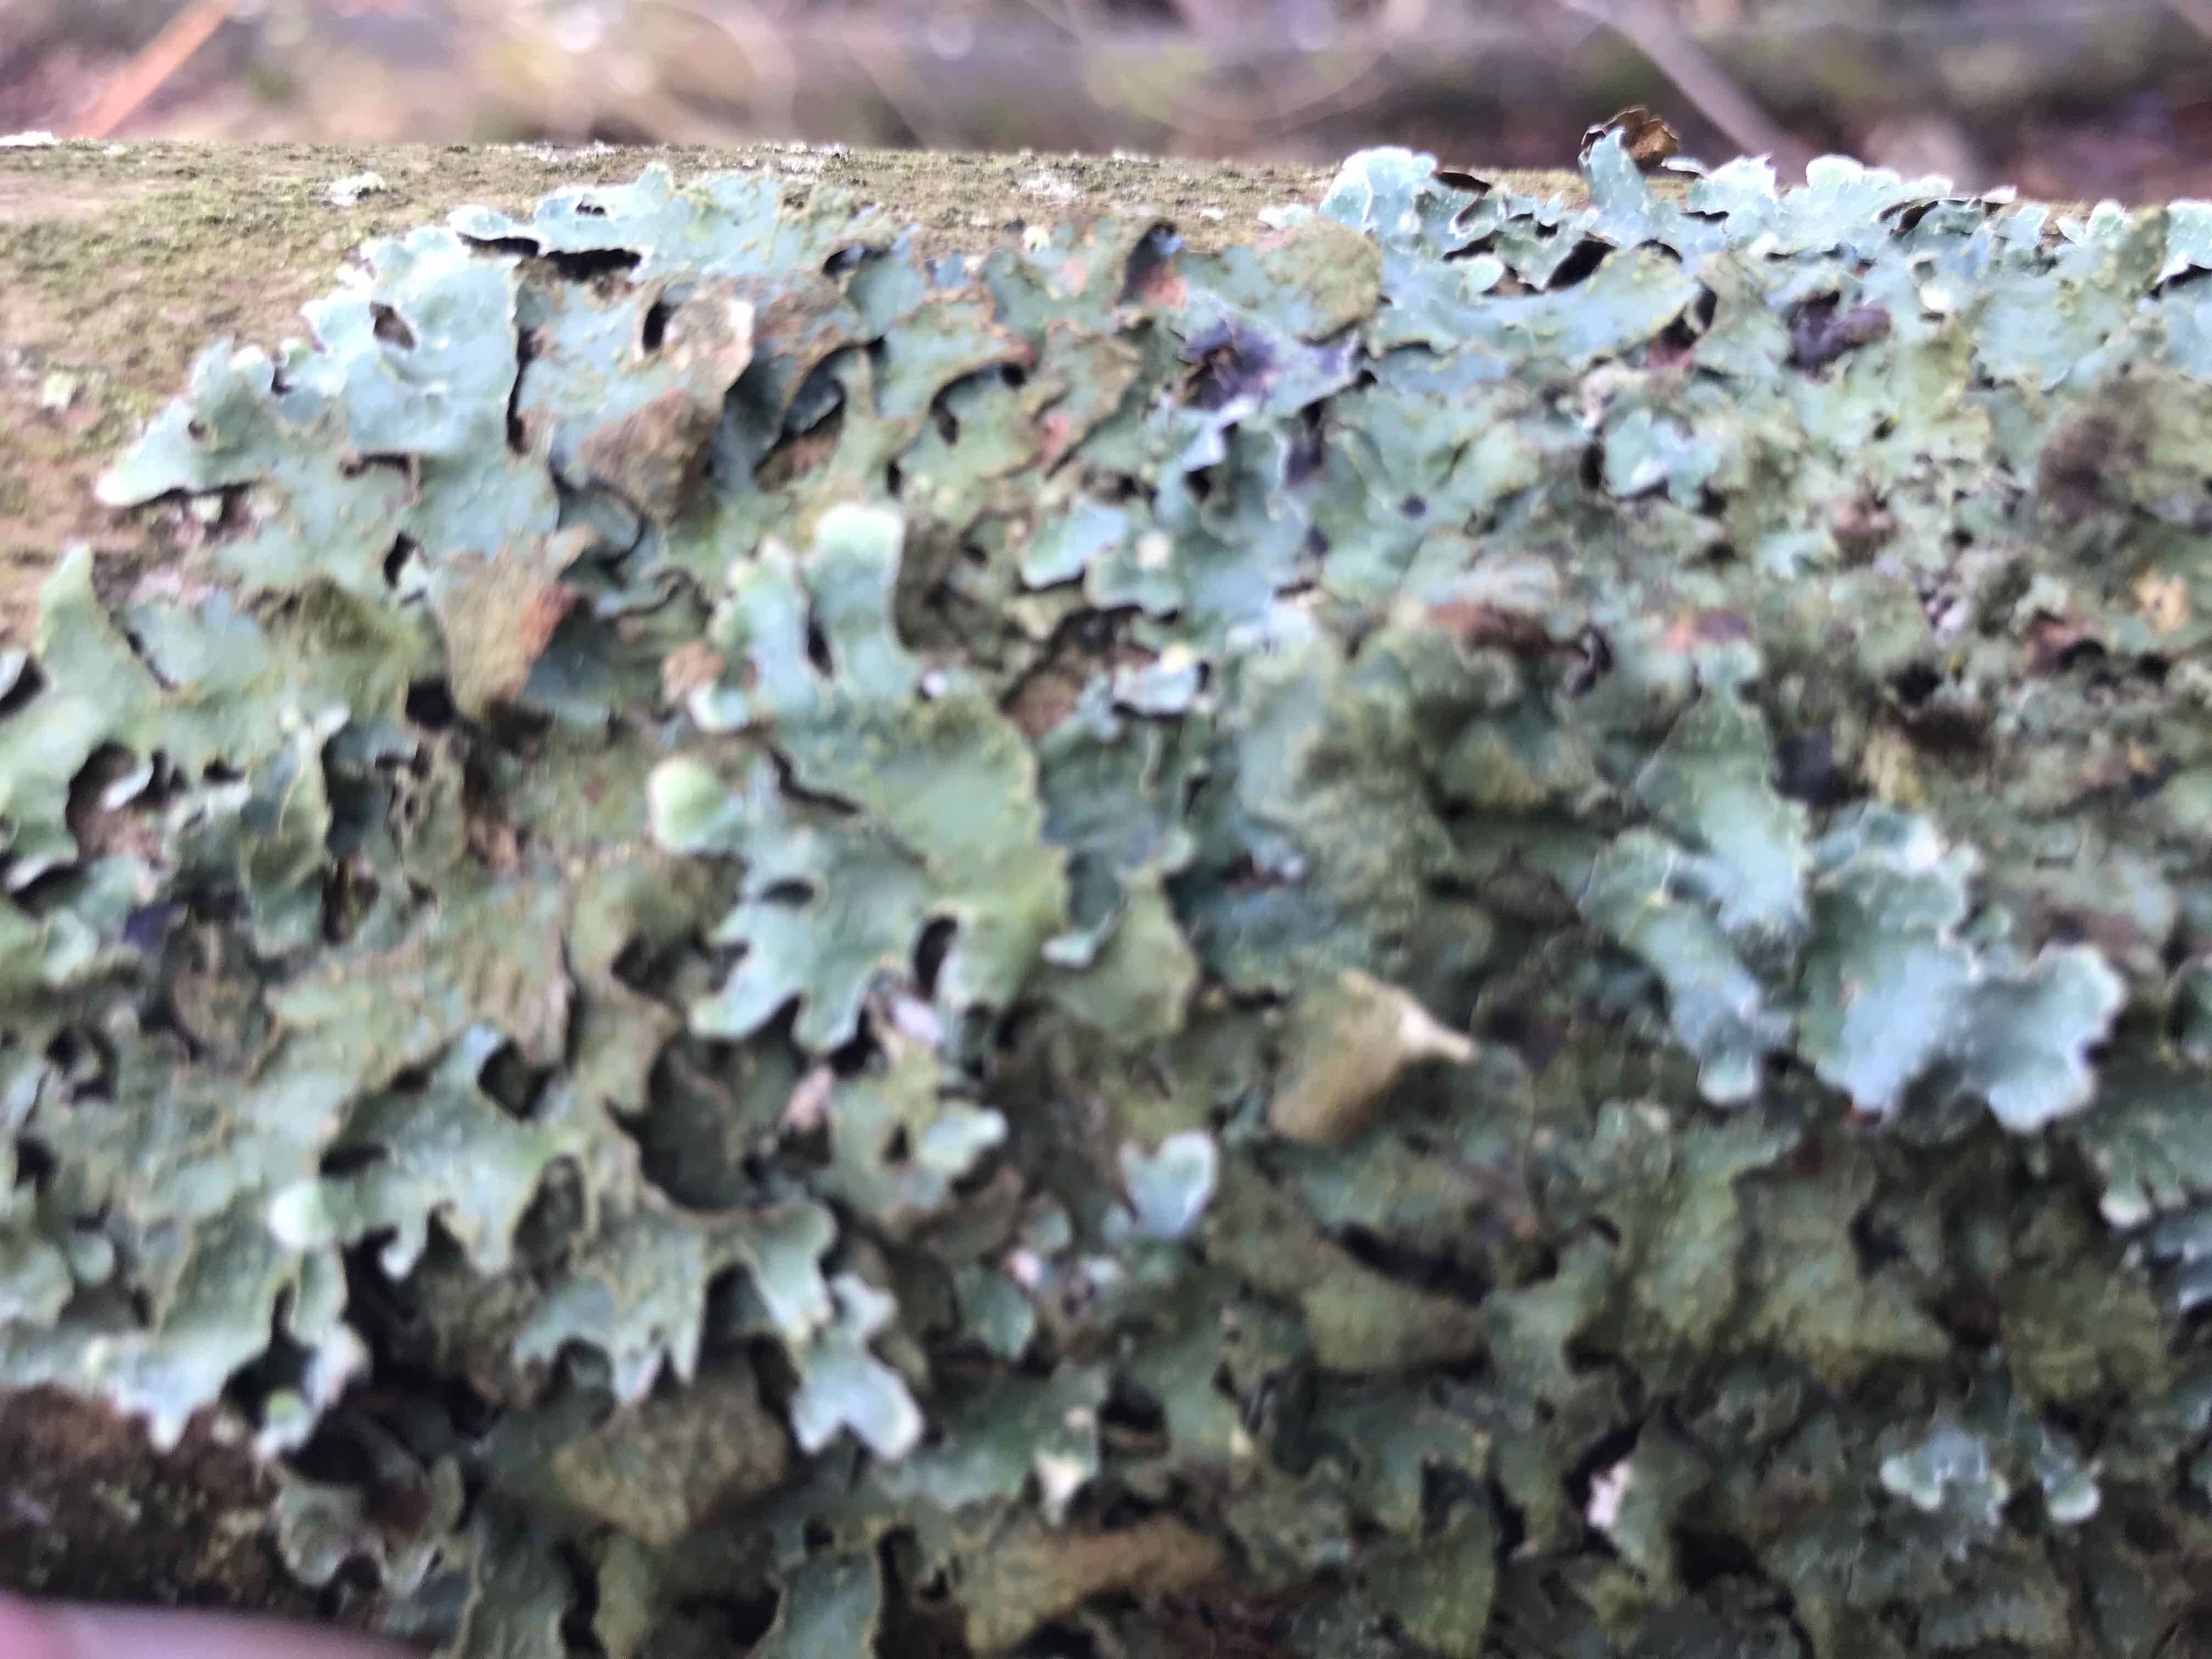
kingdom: Fungi
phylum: Ascomycota
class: Lecanoromycetes
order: Lecanorales
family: Parmeliaceae
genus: Parmelia
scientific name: Parmelia sulcata
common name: rynket skållav
